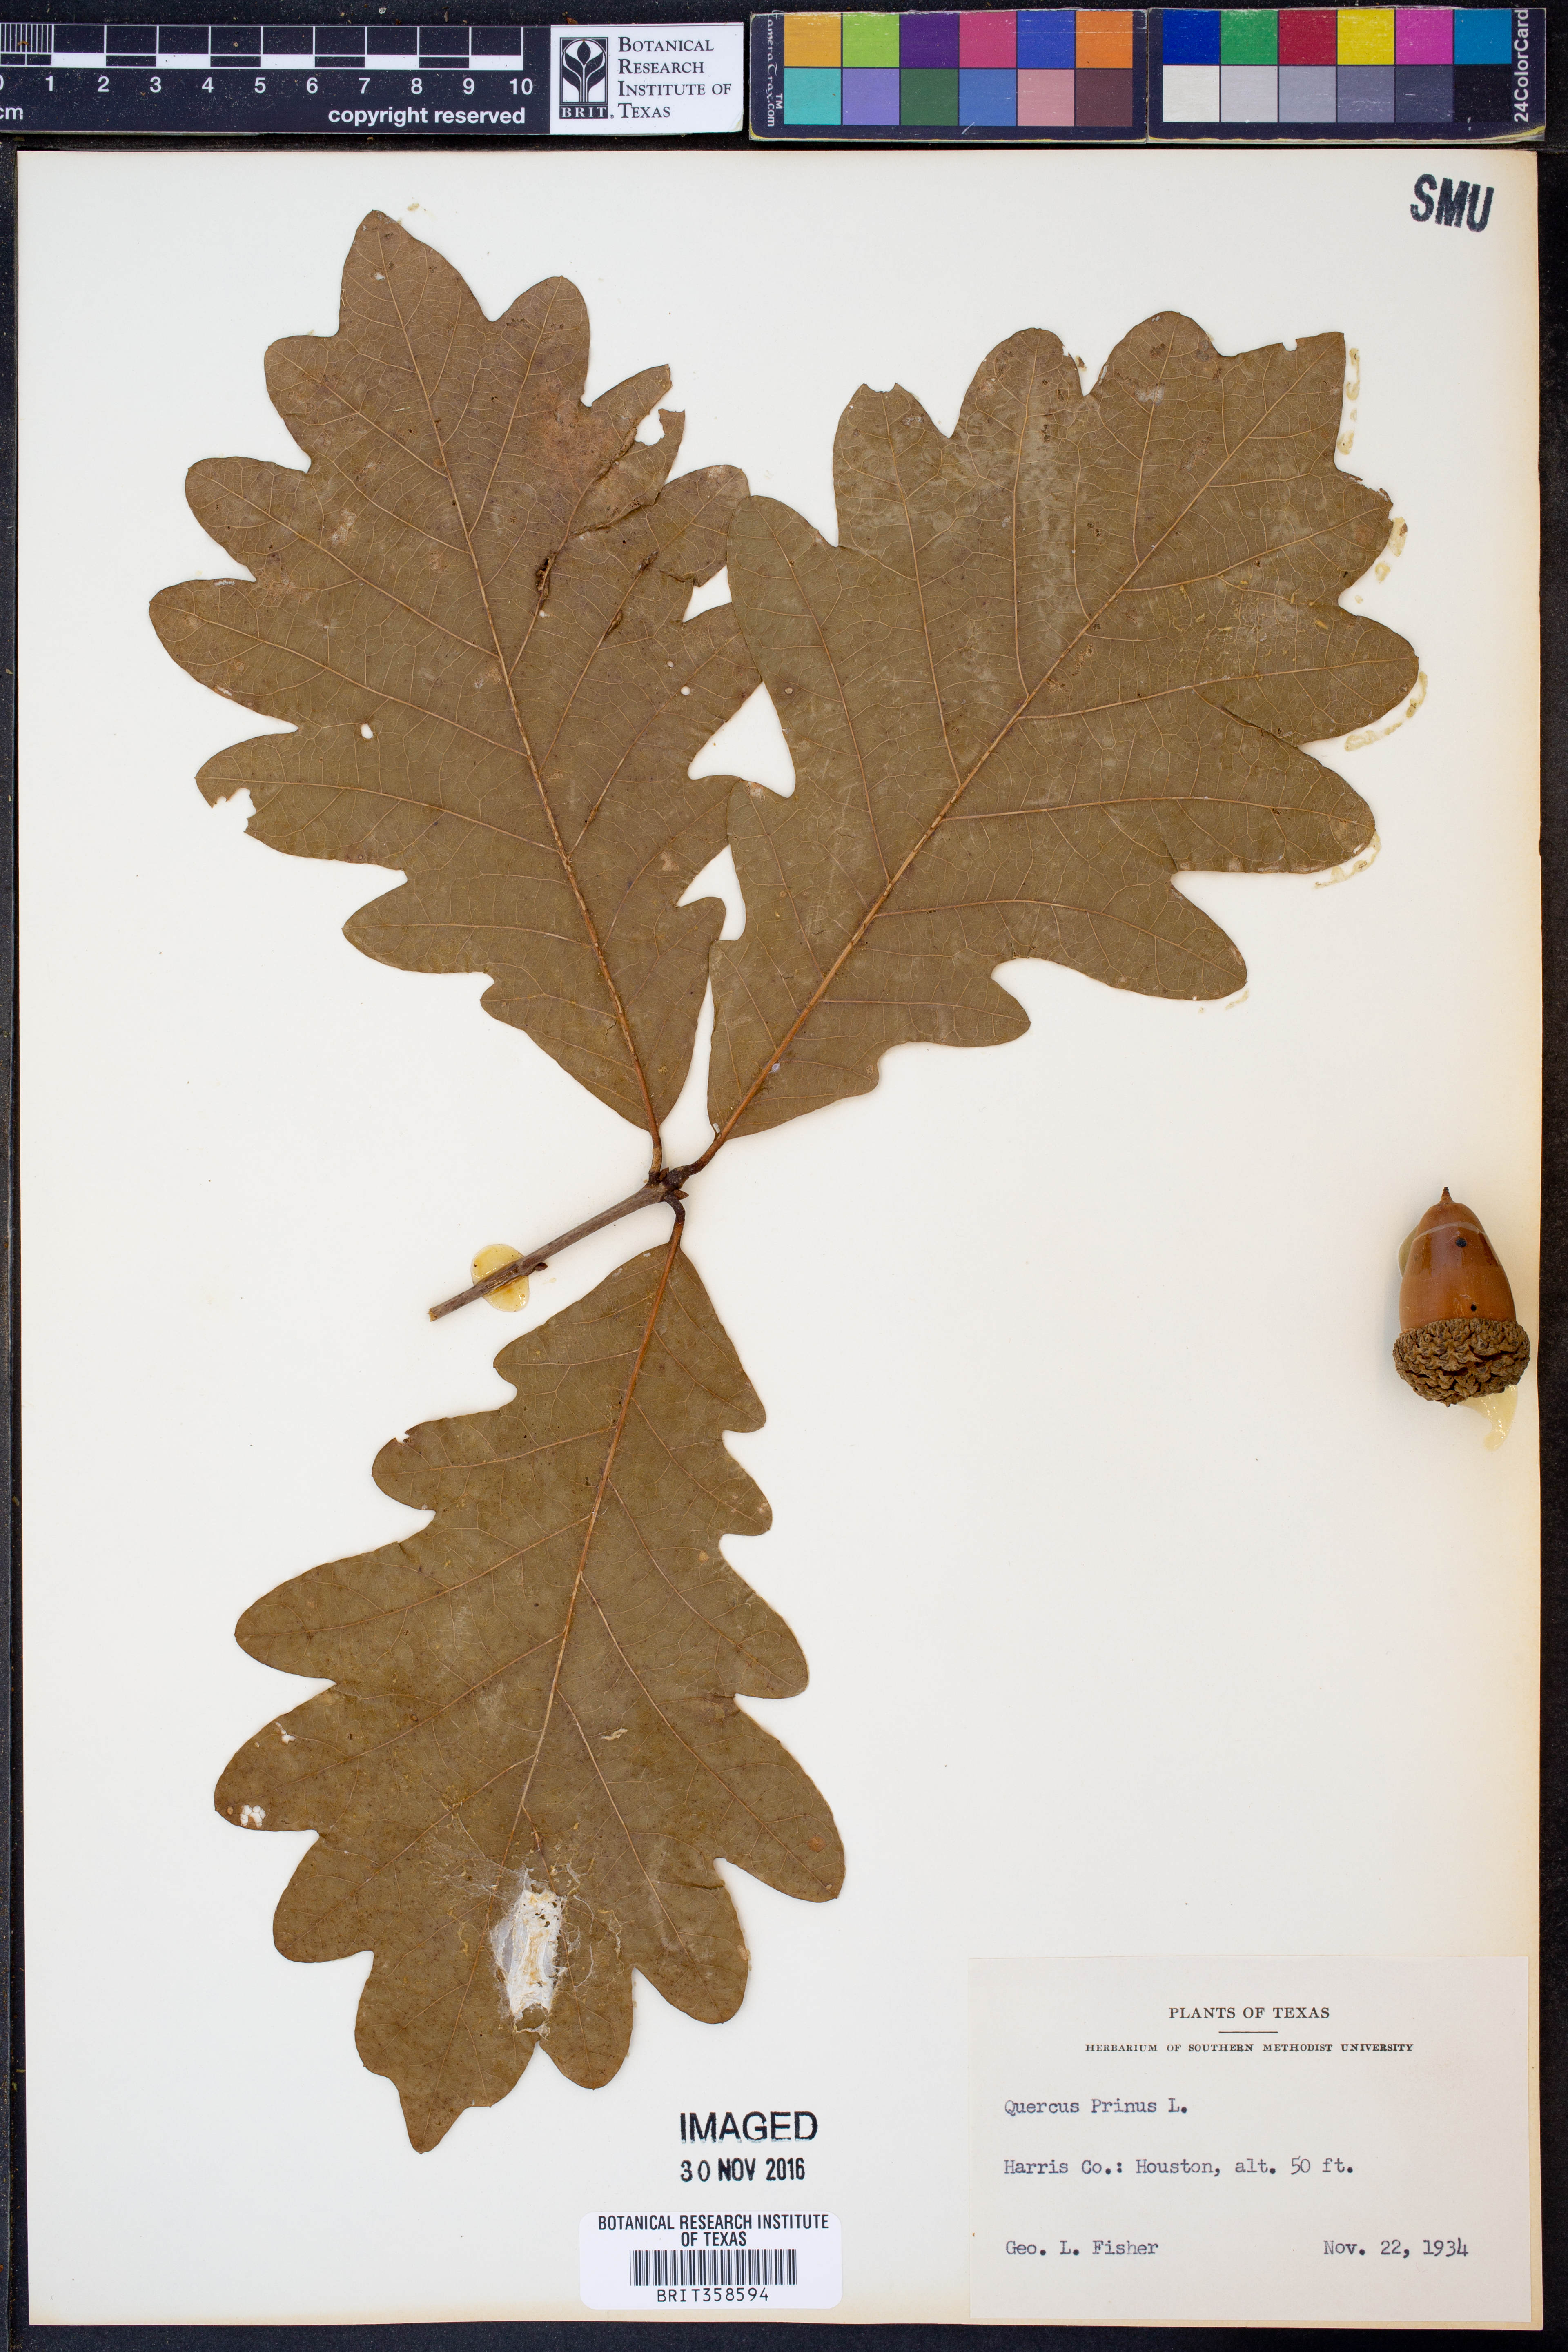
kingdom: Plantae
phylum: Tracheophyta
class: Magnoliopsida
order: Fagales
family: Fagaceae
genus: Quercus
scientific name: Quercus michauxii
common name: Swamp chestnut oak
